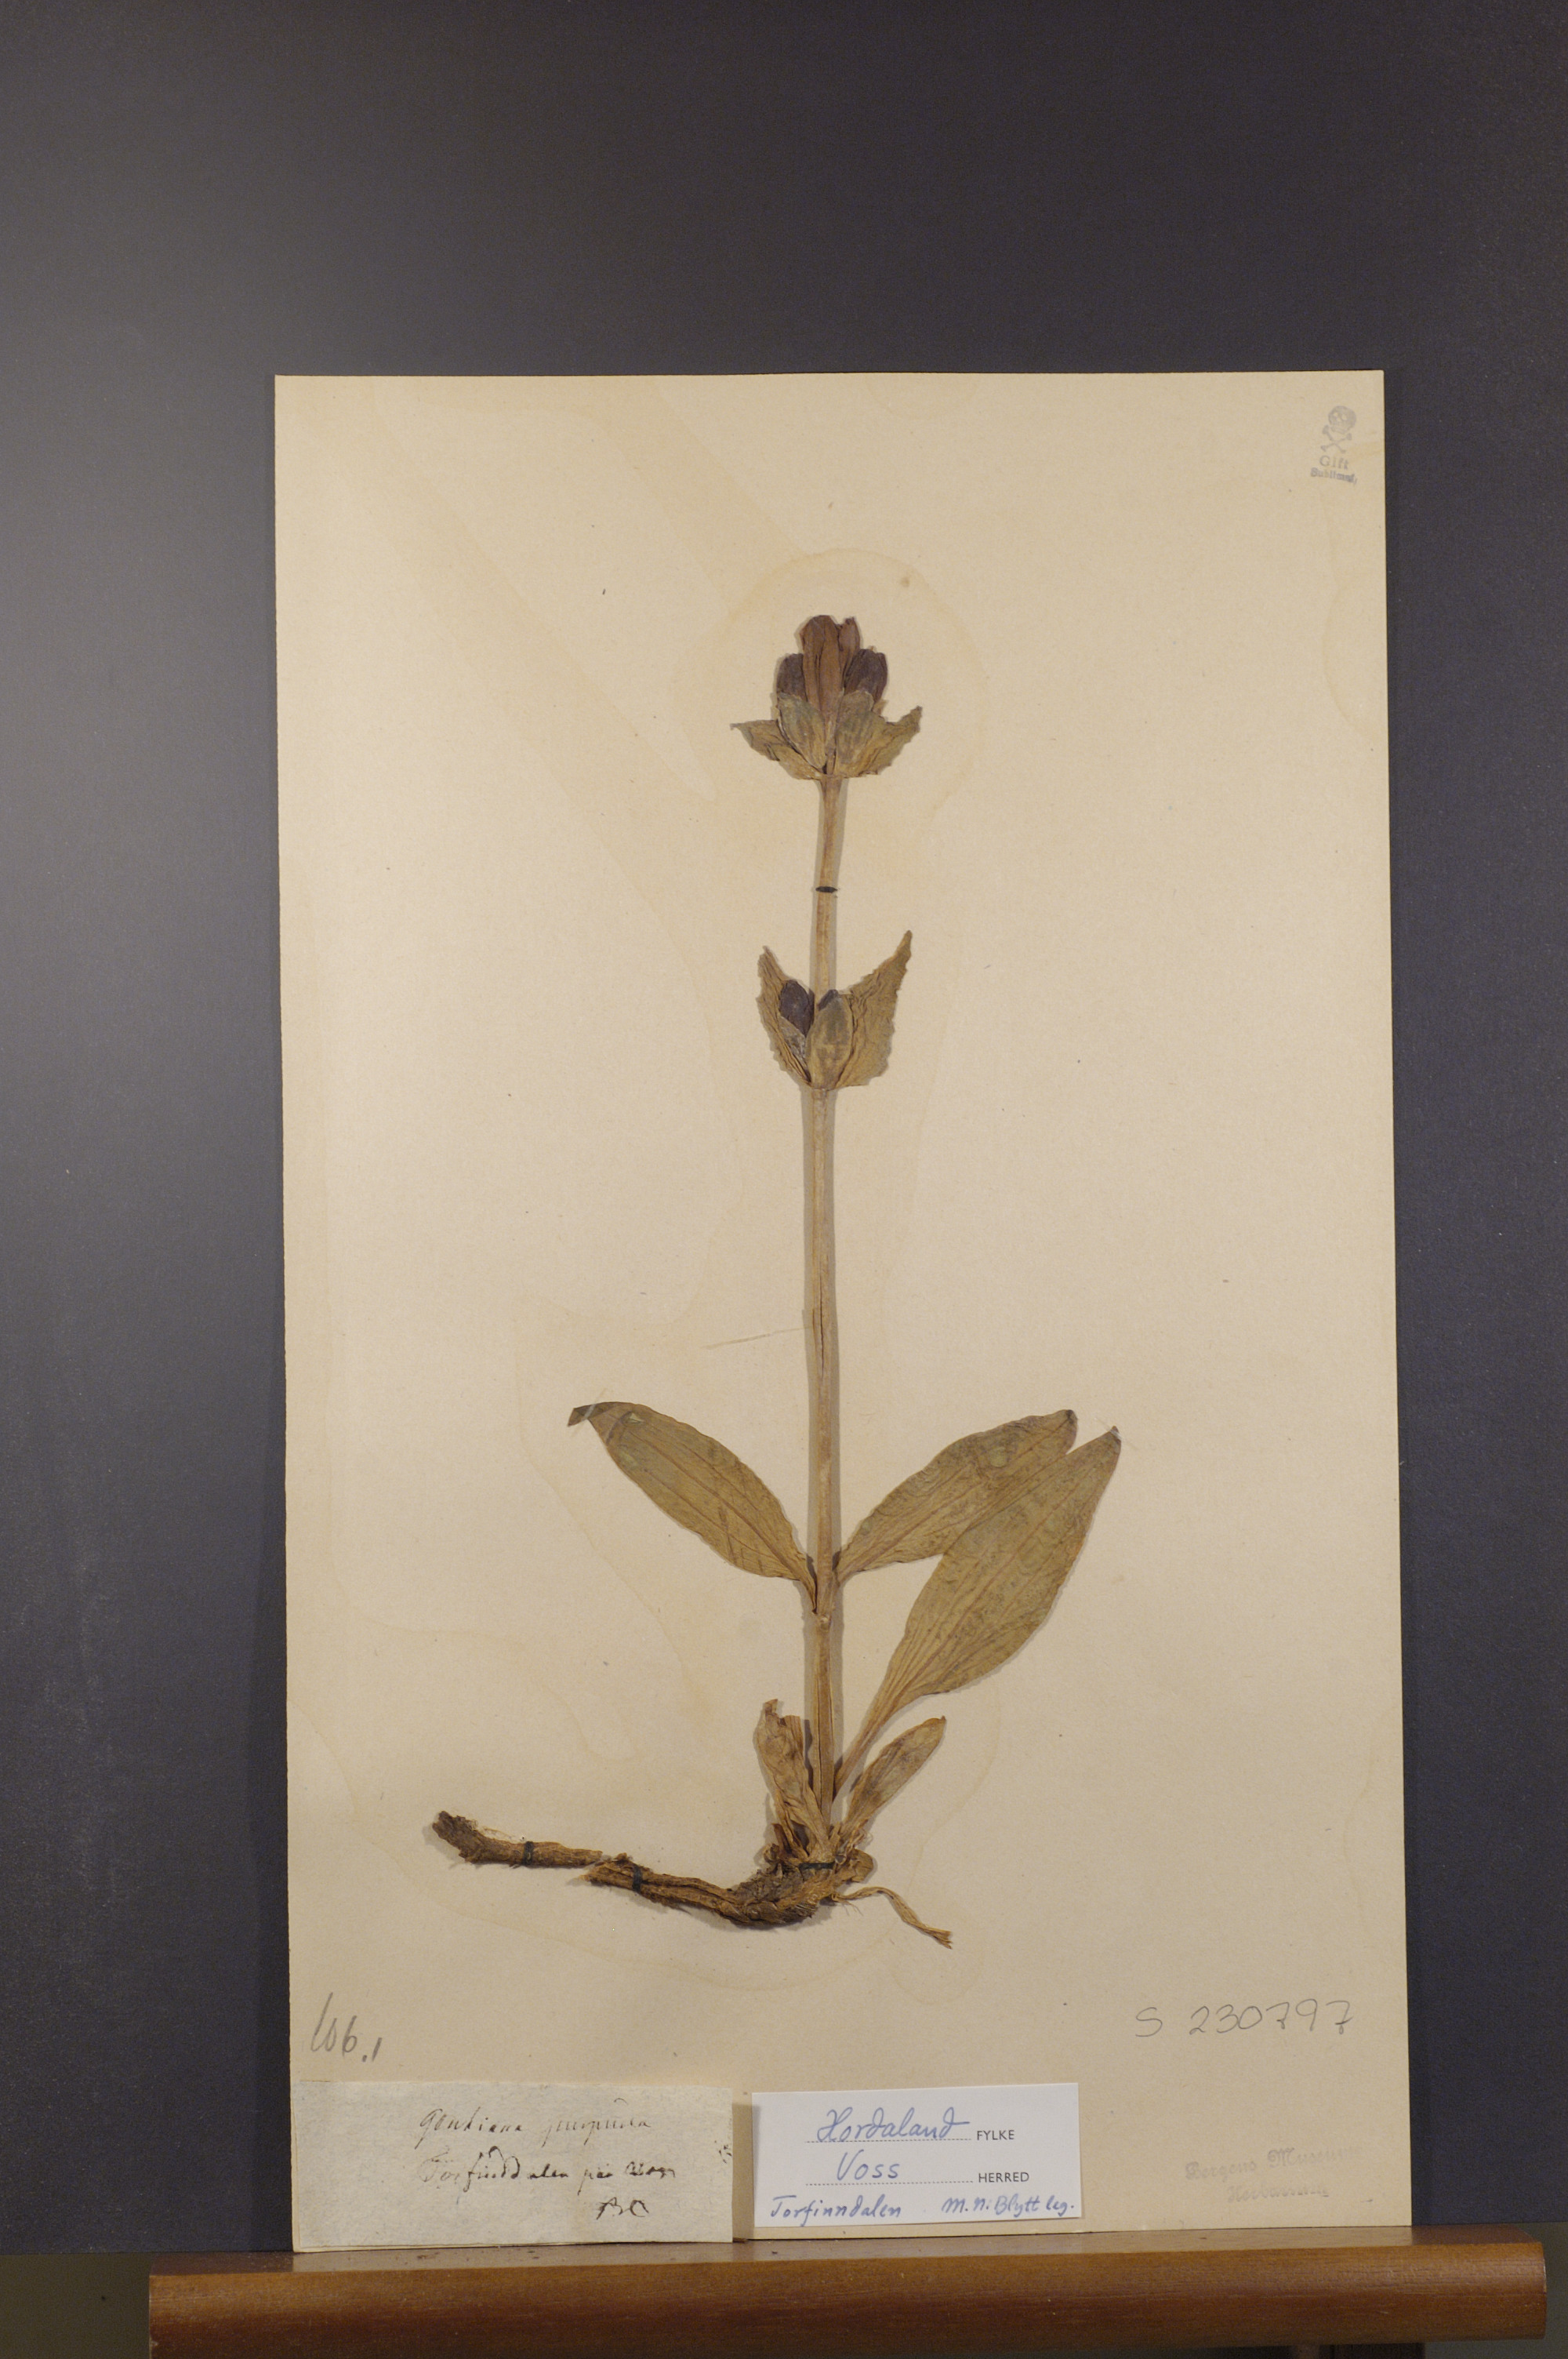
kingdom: Plantae
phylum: Tracheophyta
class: Magnoliopsida
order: Gentianales
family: Gentianaceae
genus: Gentiana
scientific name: Gentiana purpurea
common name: Purple gentian
